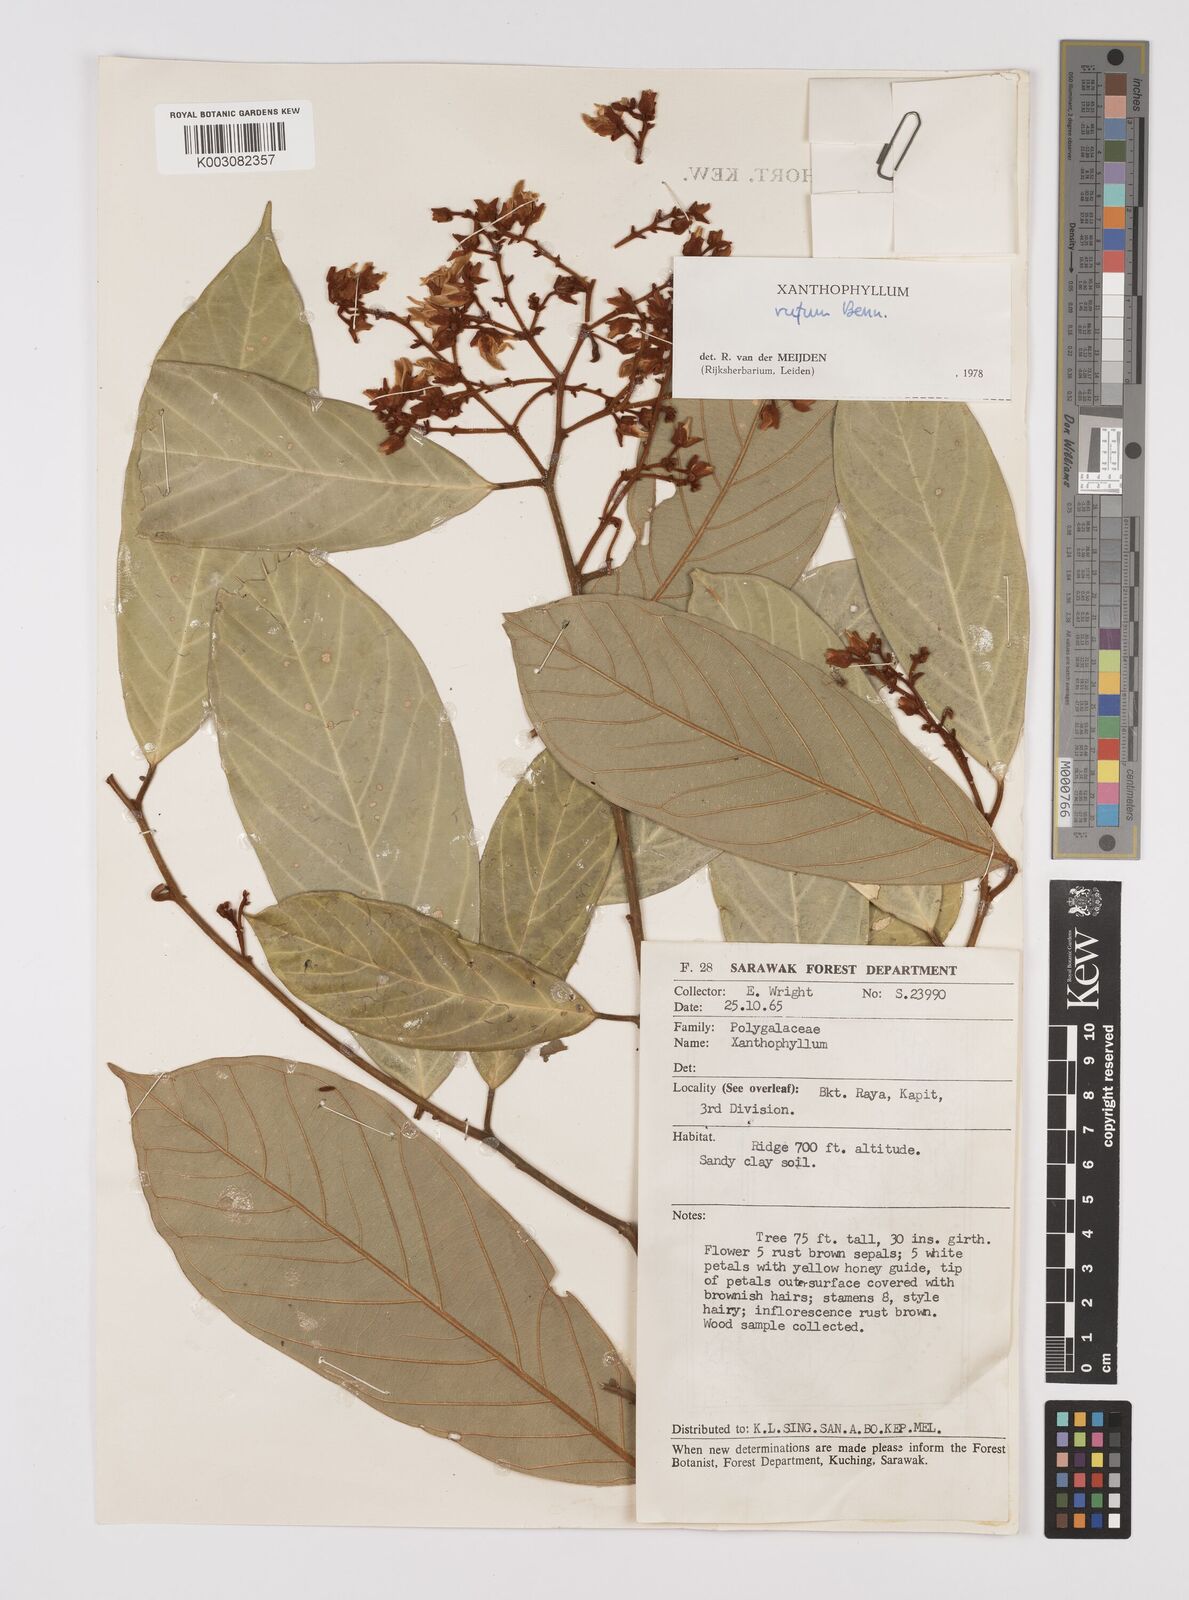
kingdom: Plantae
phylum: Tracheophyta
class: Magnoliopsida
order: Fabales
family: Polygalaceae
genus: Xanthophyllum
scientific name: Xanthophyllum rufum
